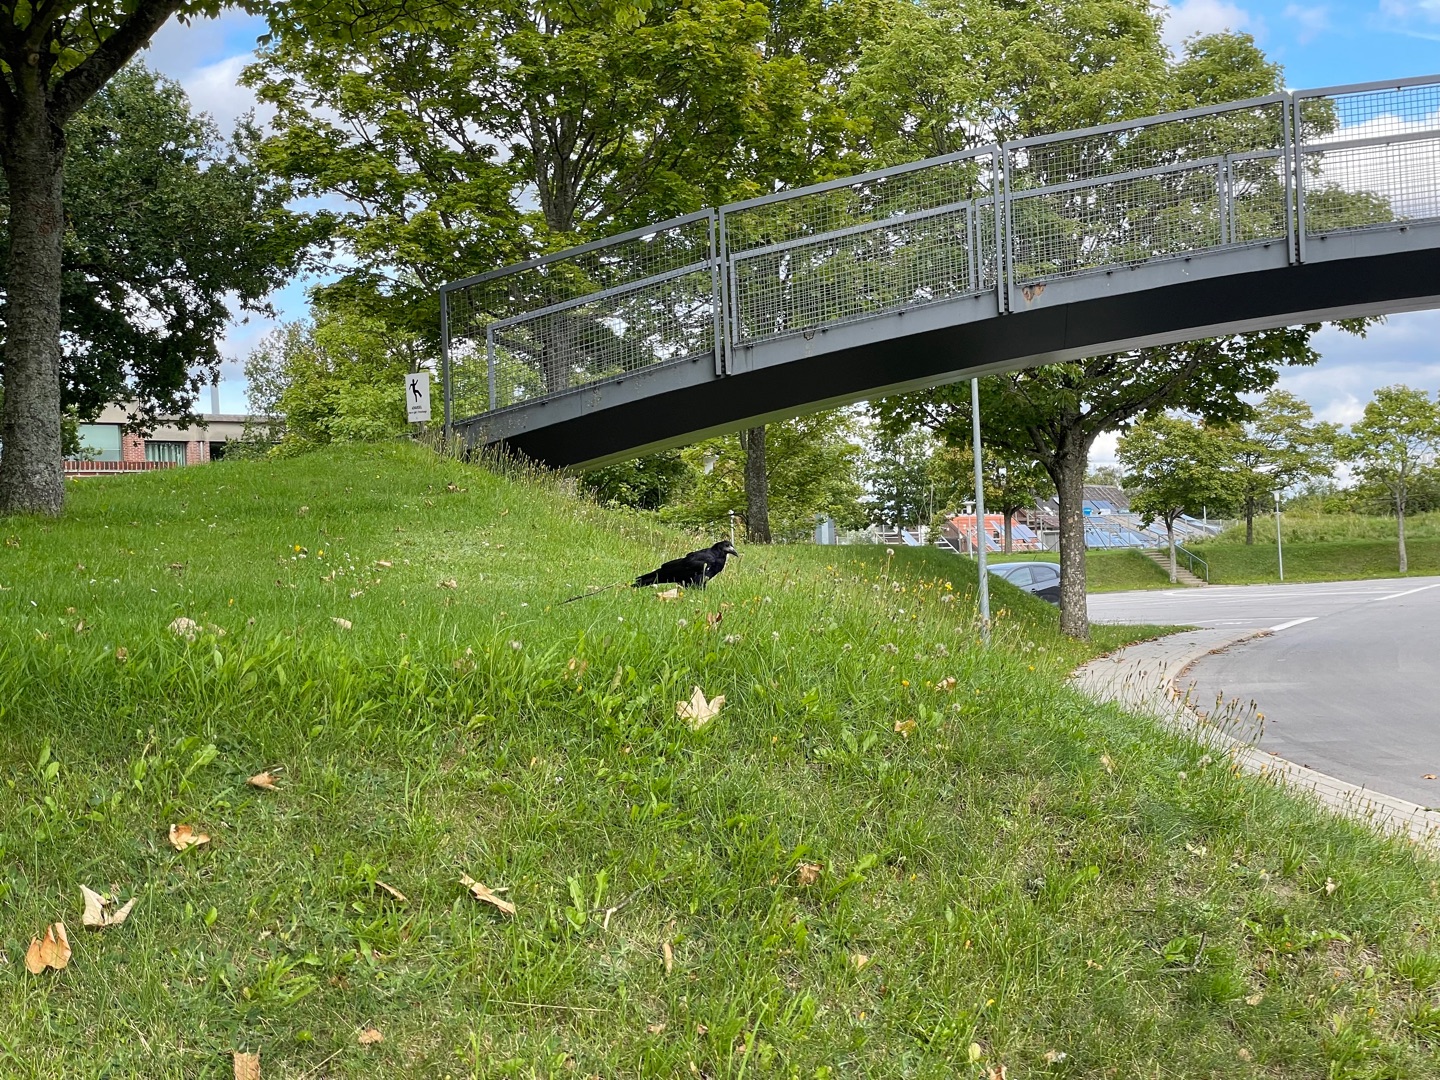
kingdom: Animalia
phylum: Chordata
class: Aves
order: Passeriformes
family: Corvidae
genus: Corvus
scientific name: Corvus frugilegus
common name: Råge
